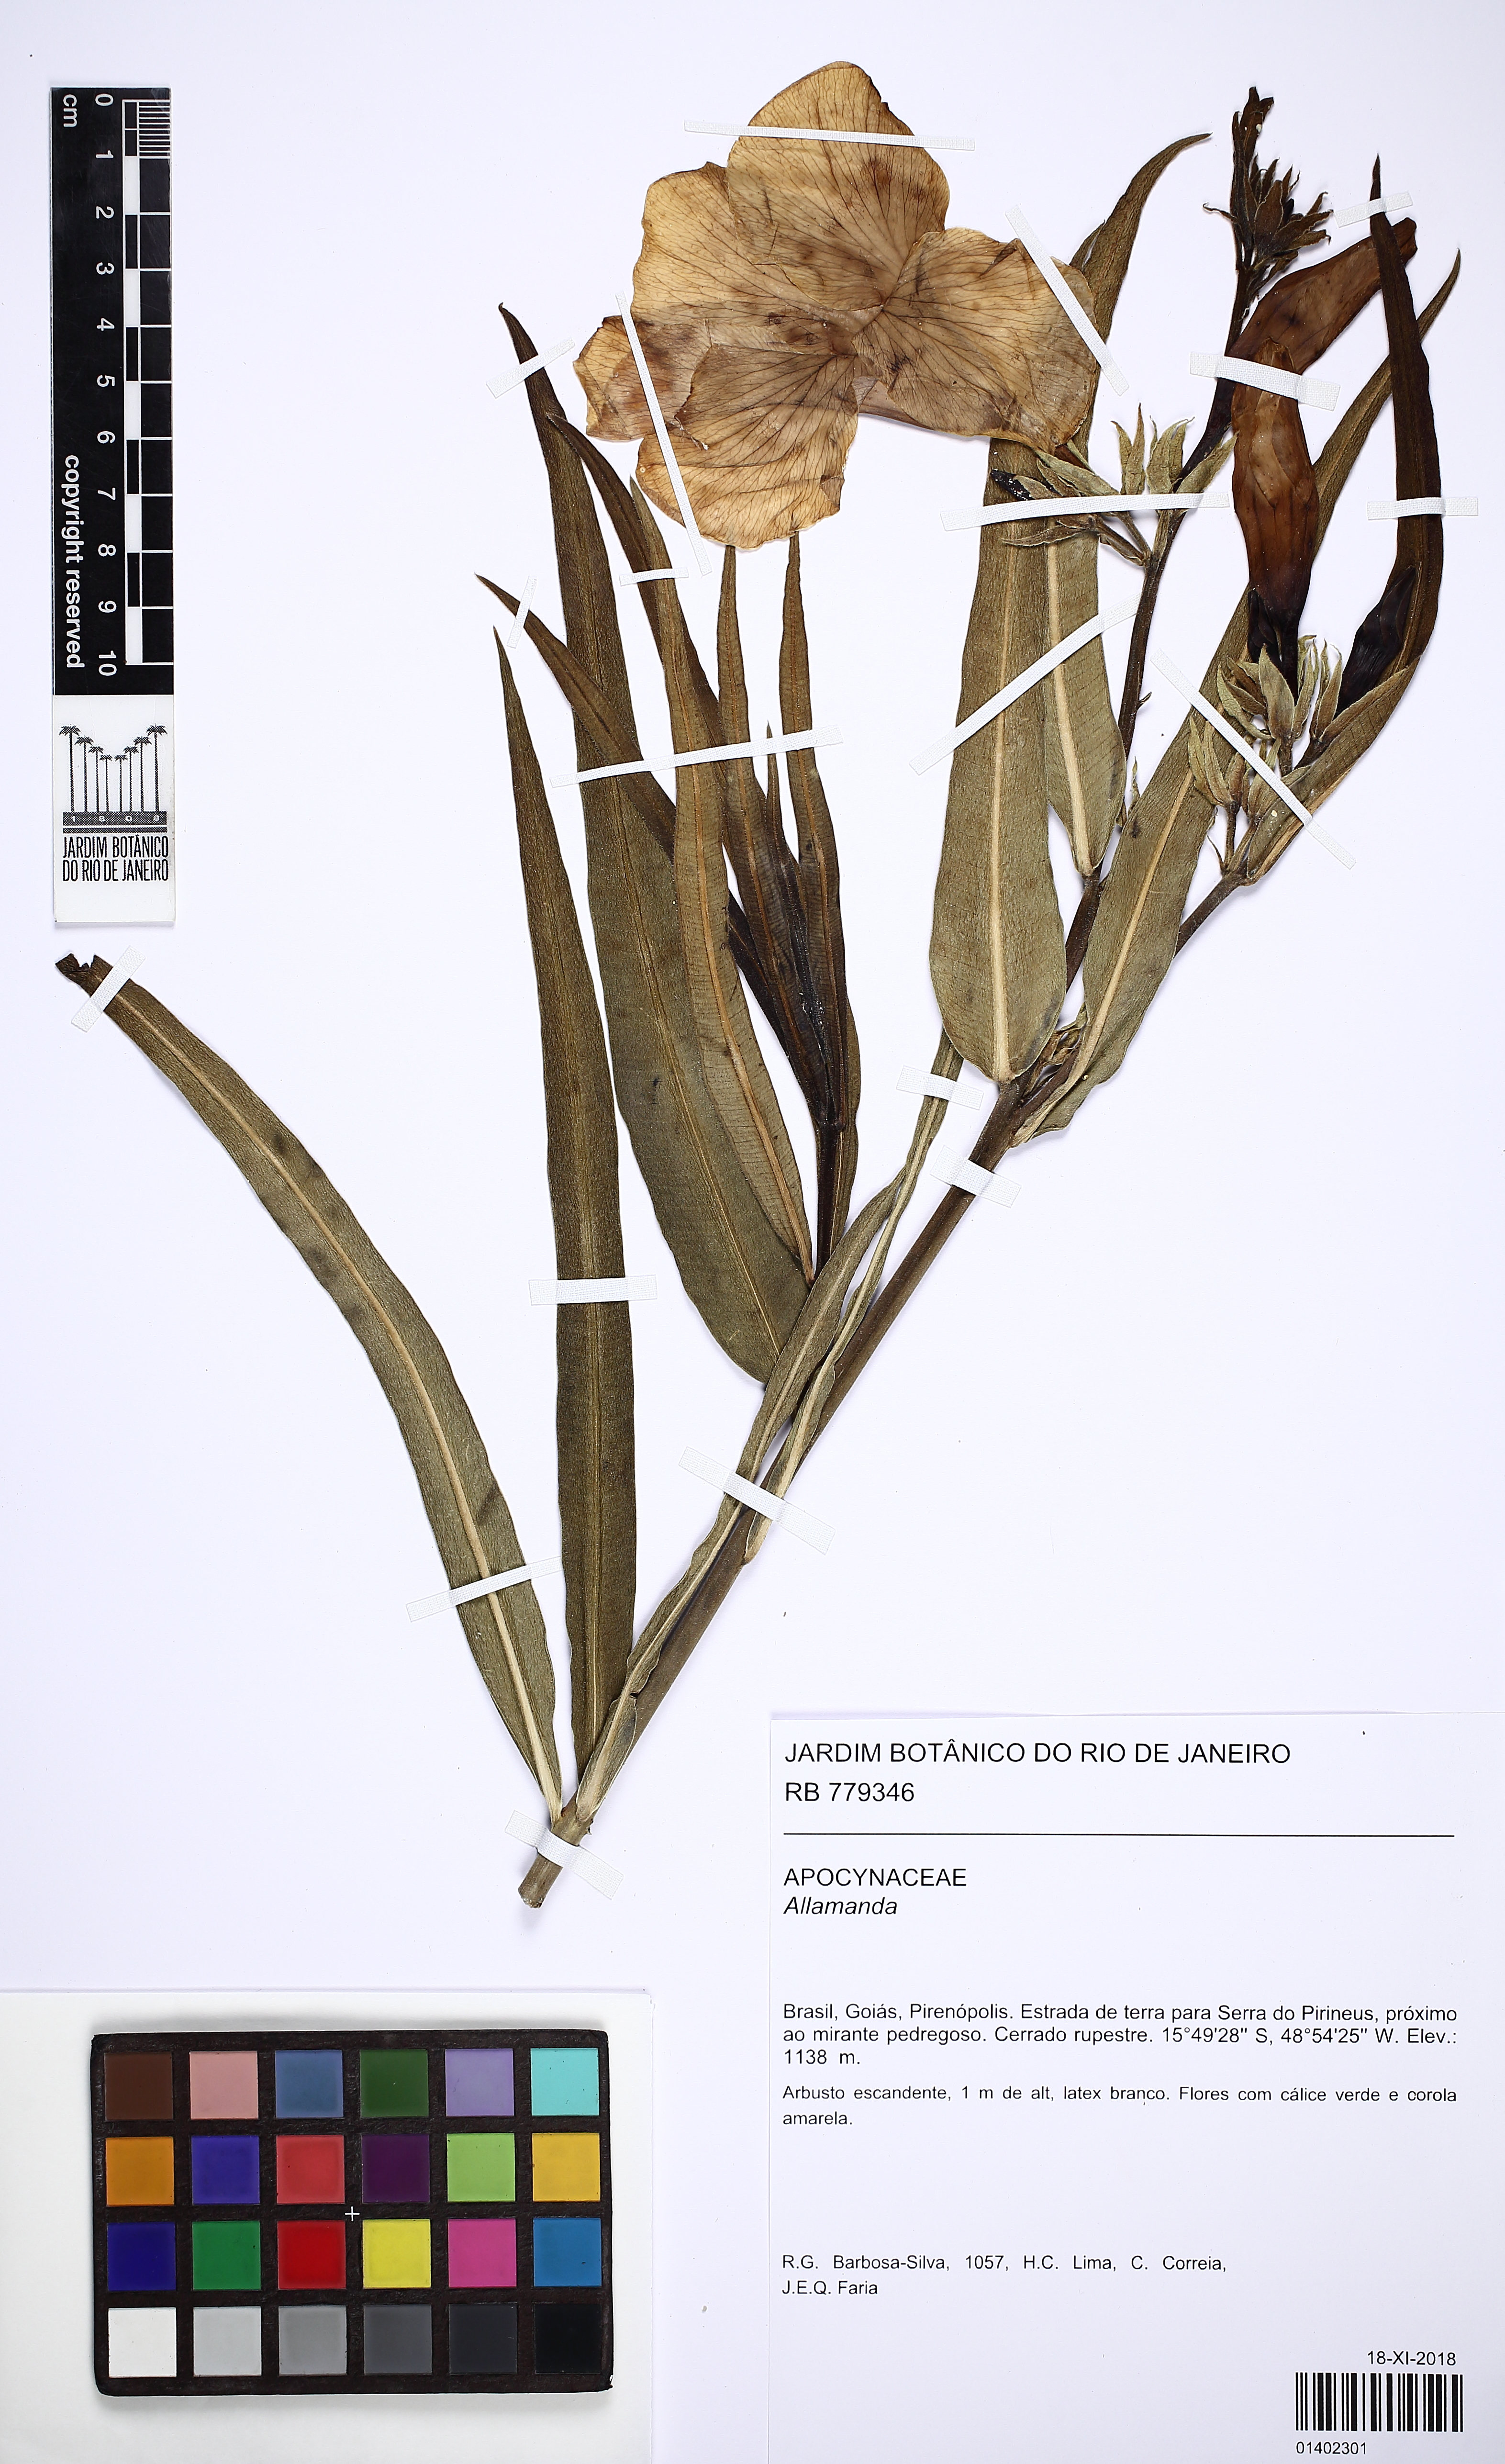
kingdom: Plantae
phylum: Tracheophyta
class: Magnoliopsida
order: Gentianales
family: Apocynaceae
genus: Allamanda
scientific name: Allamanda
